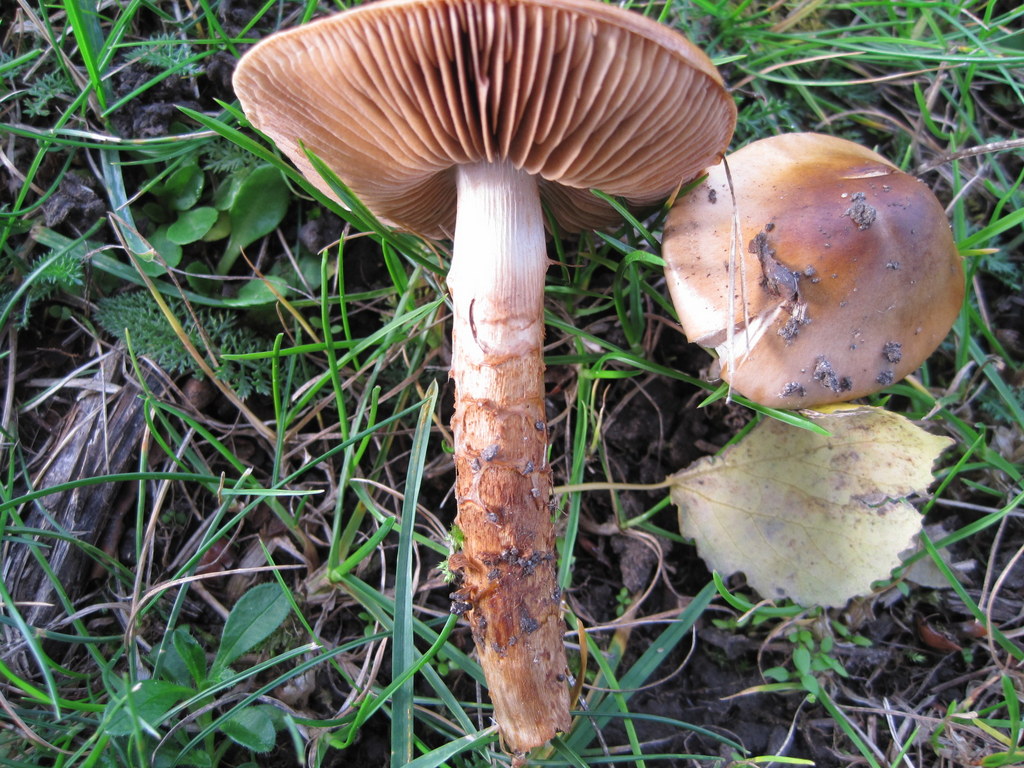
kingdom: Fungi
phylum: Basidiomycota
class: Agaricomycetes
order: Agaricales
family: Cortinariaceae
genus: Cortinarius
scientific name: Cortinarius trivialis
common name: brunslimet slørhat
